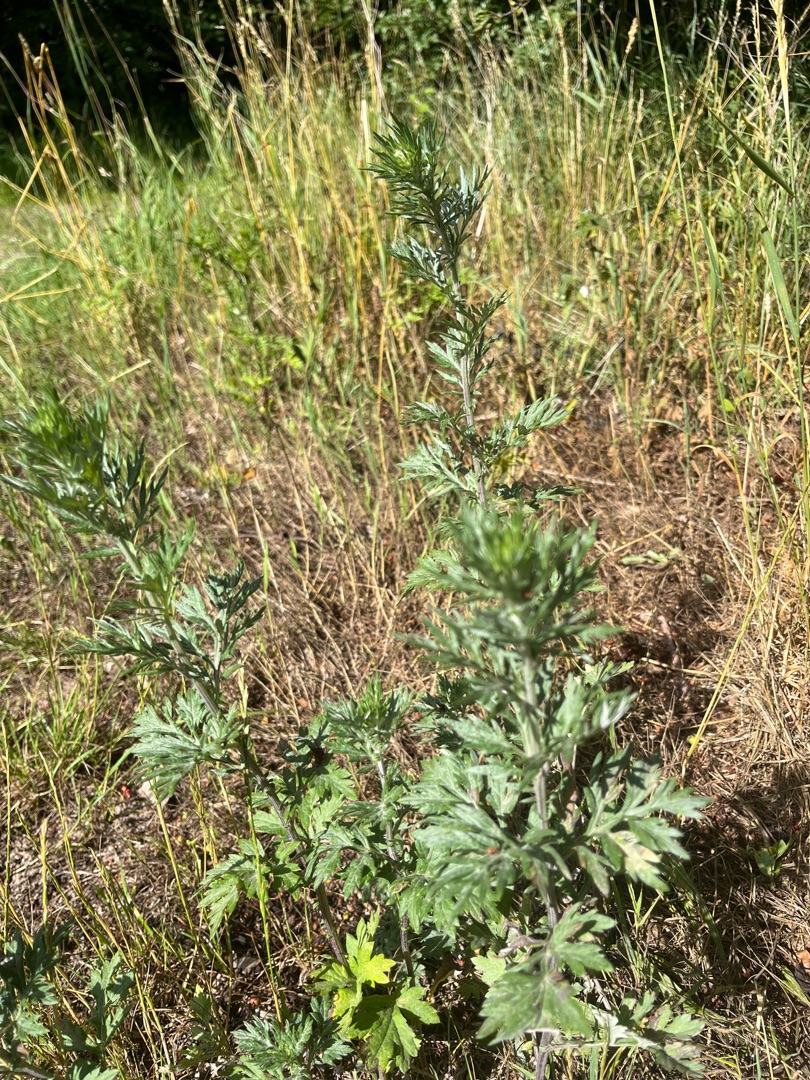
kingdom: Plantae
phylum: Tracheophyta
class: Magnoliopsida
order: Asterales
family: Asteraceae
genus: Artemisia
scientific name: Artemisia vulgaris
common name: Grå-bynke
